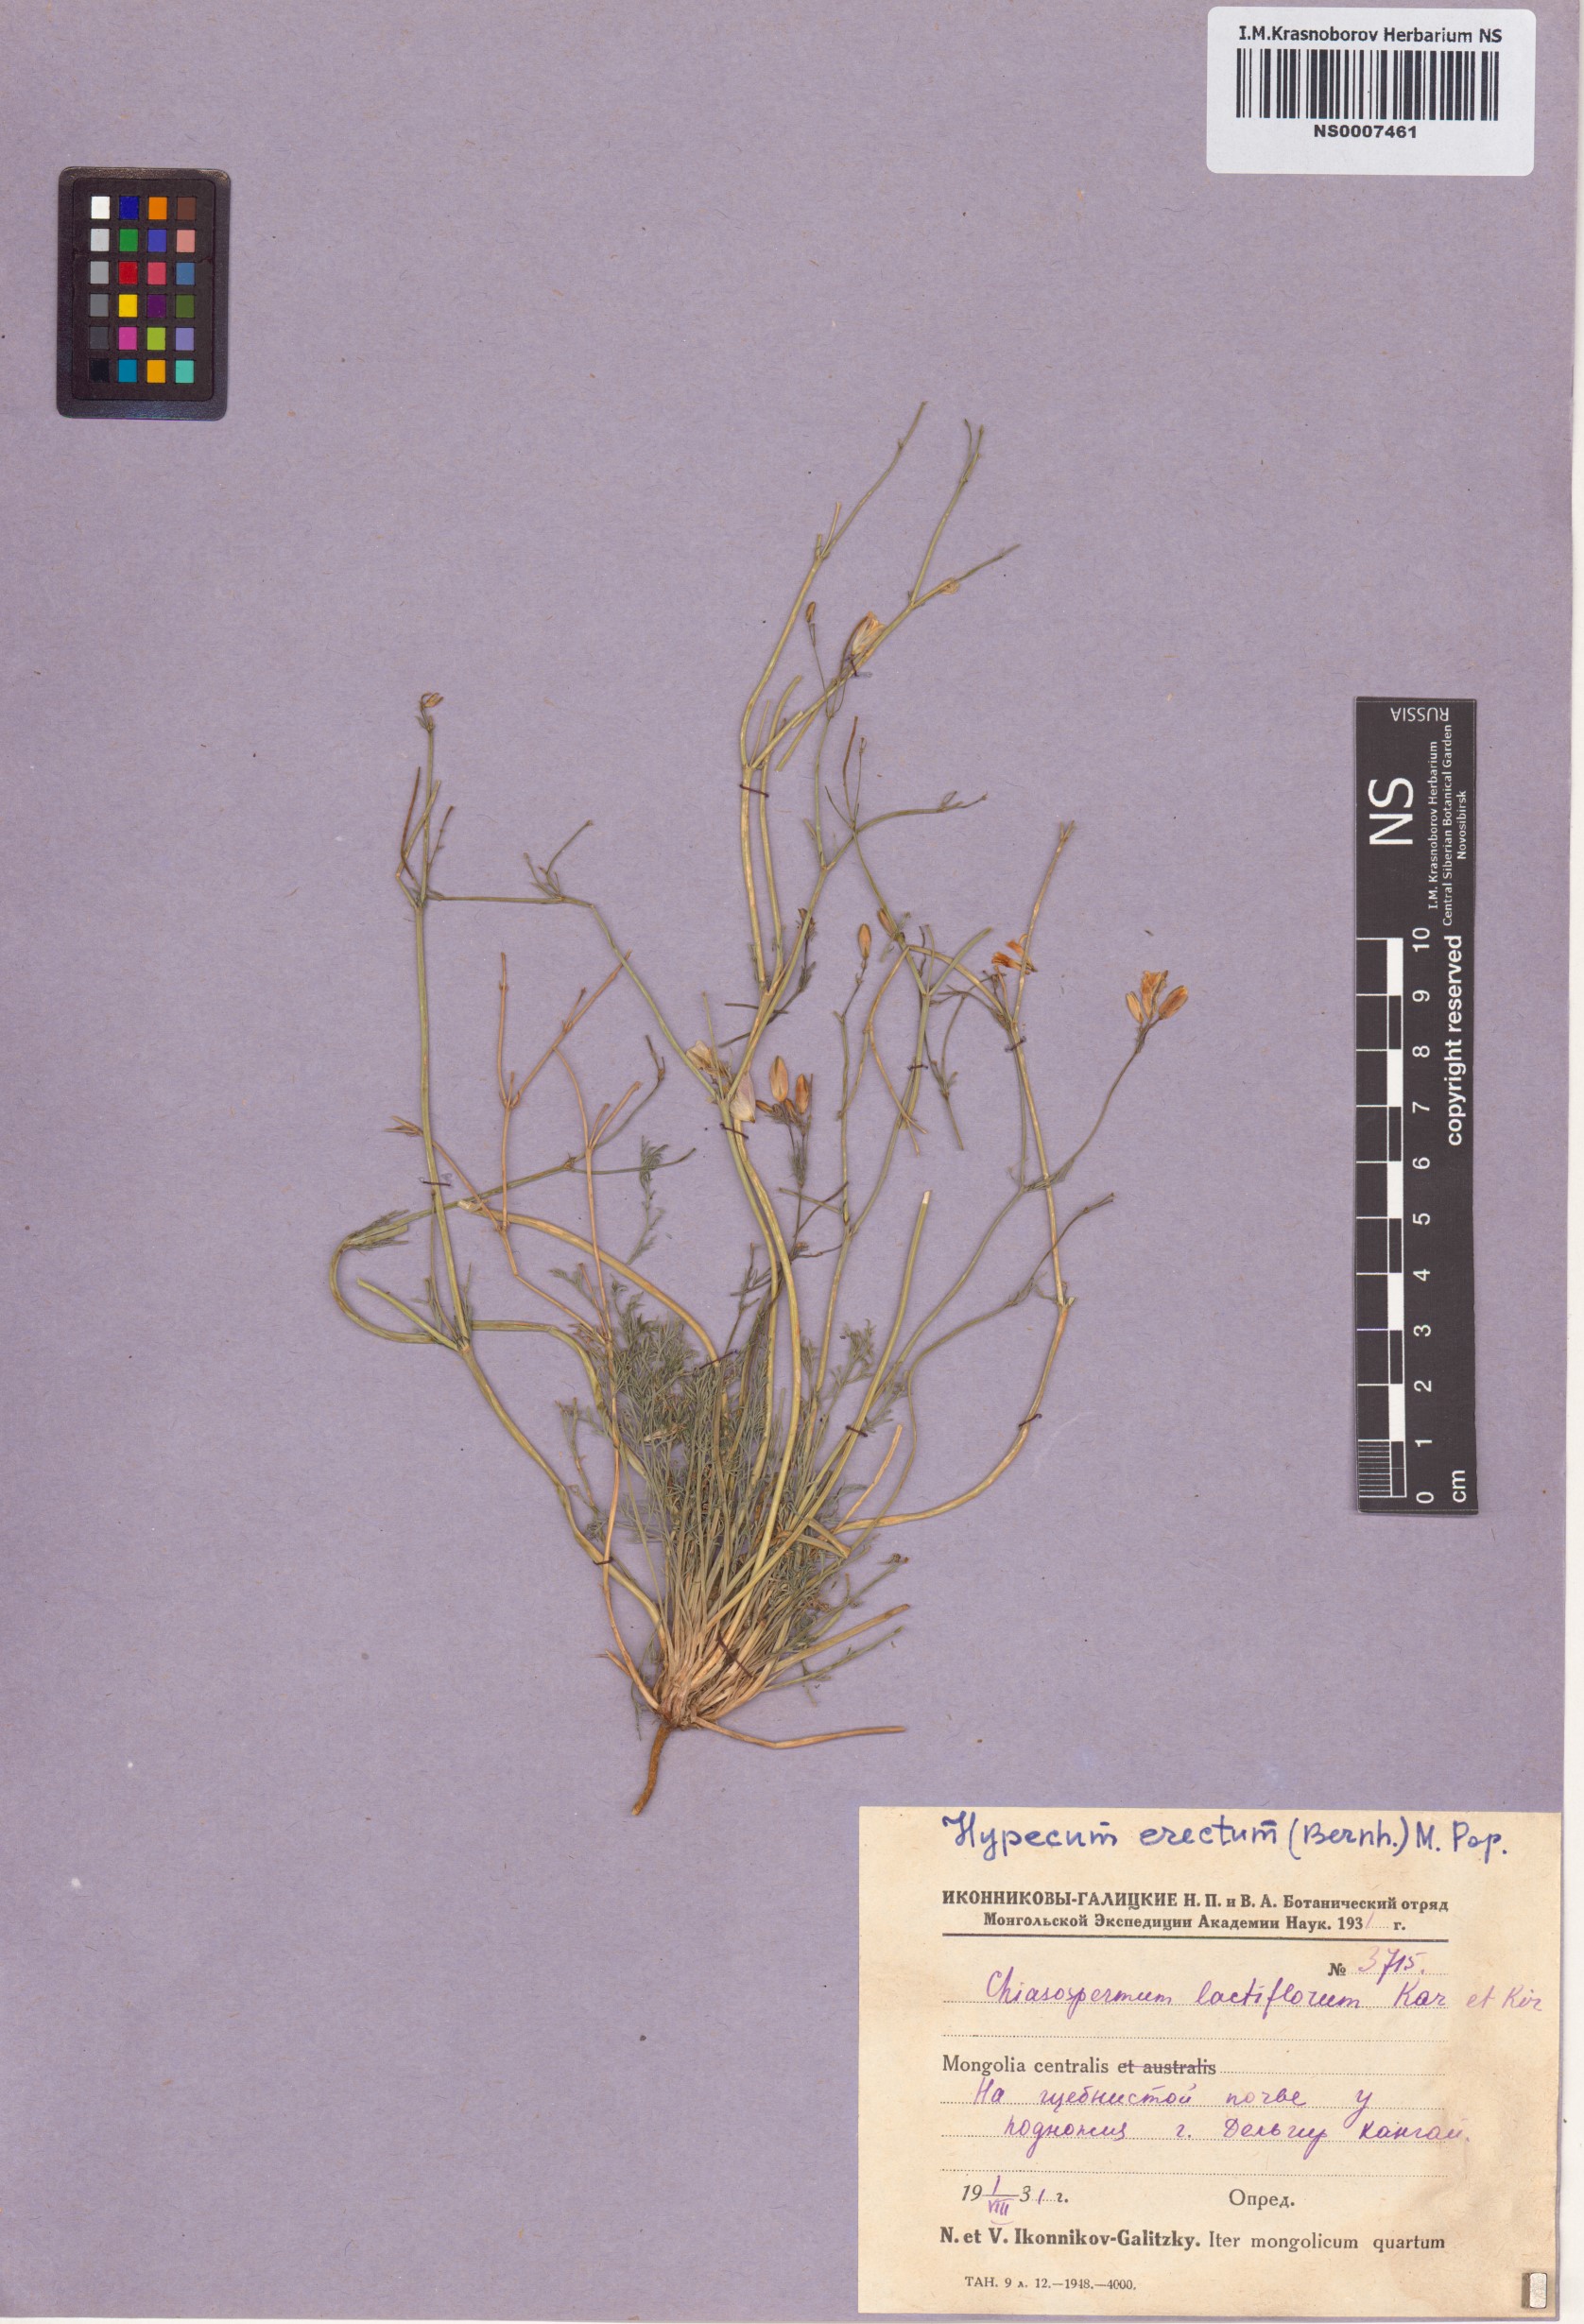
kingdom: Plantae
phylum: Tracheophyta
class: Magnoliopsida
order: Ranunculales
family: Papaveraceae
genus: Hypecoum
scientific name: Hypecoum erectum
